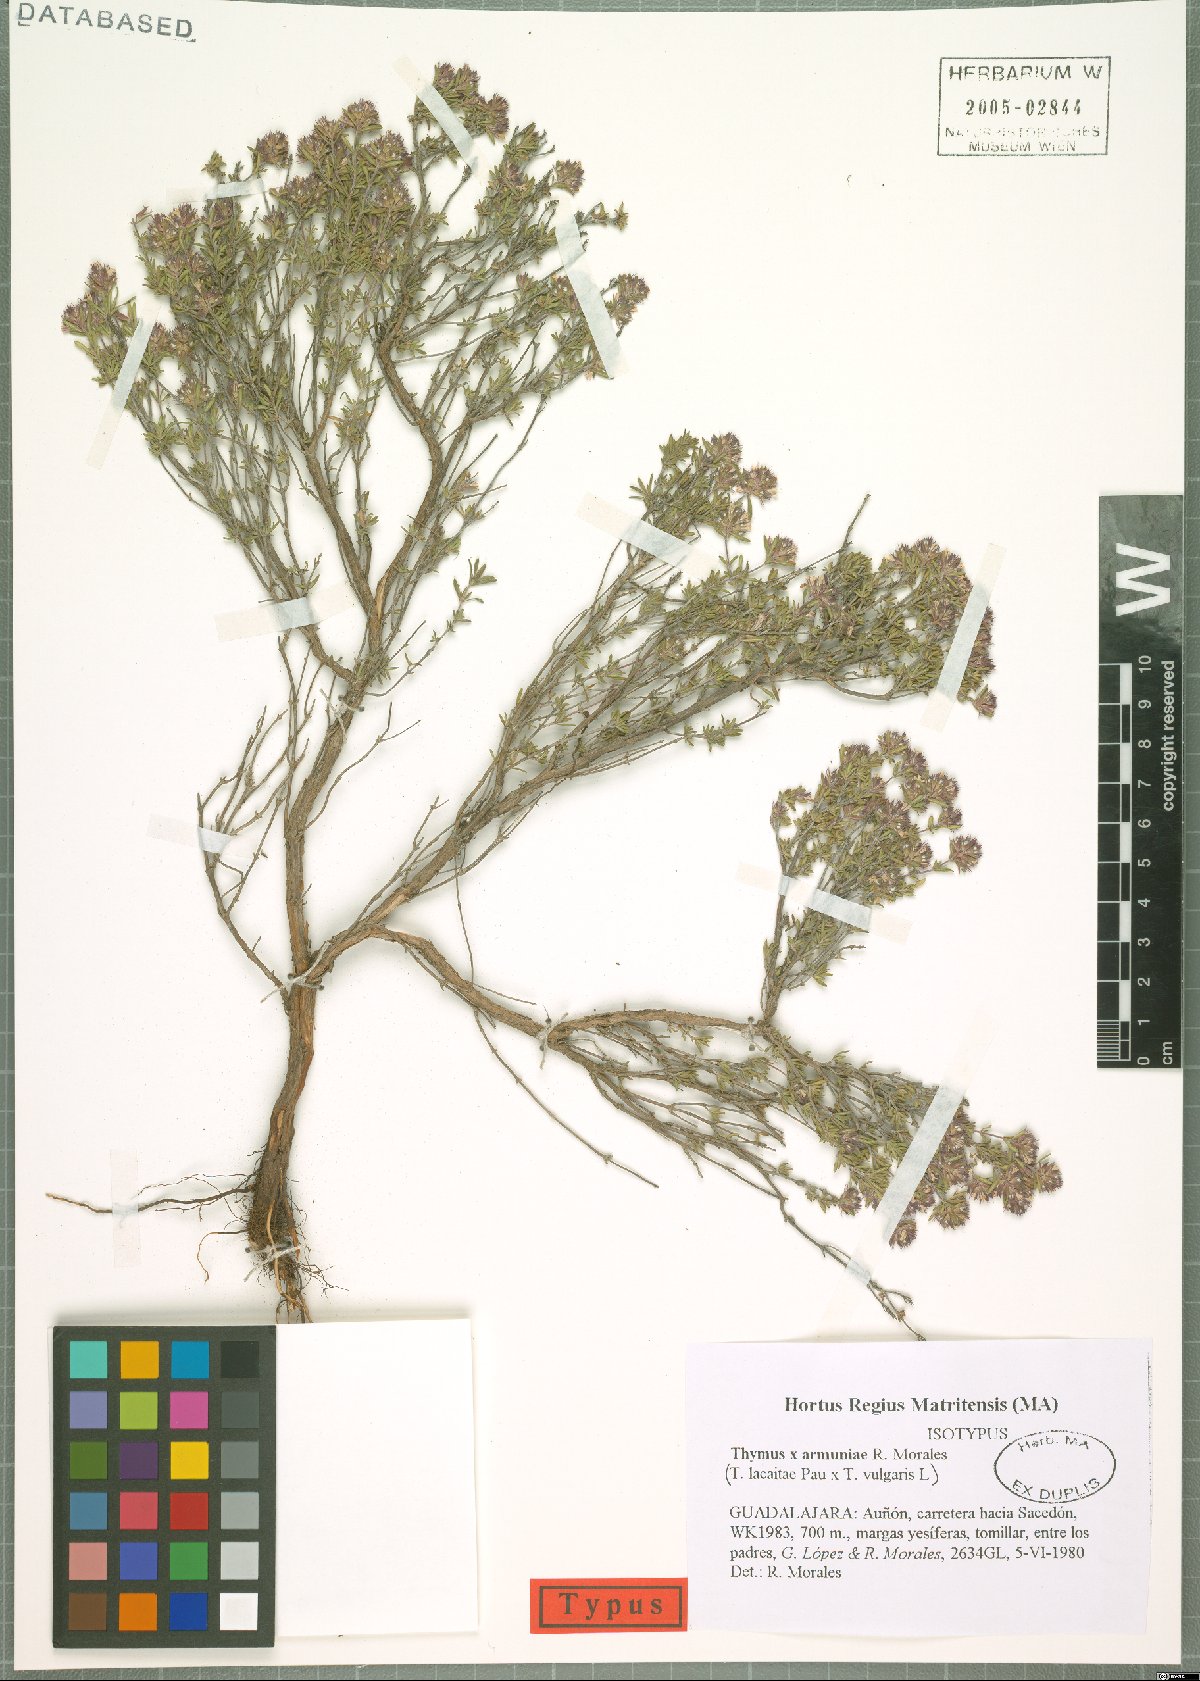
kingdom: Plantae
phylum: Tracheophyta
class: Magnoliopsida
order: Lamiales
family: Lamiaceae
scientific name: Lamiaceae
